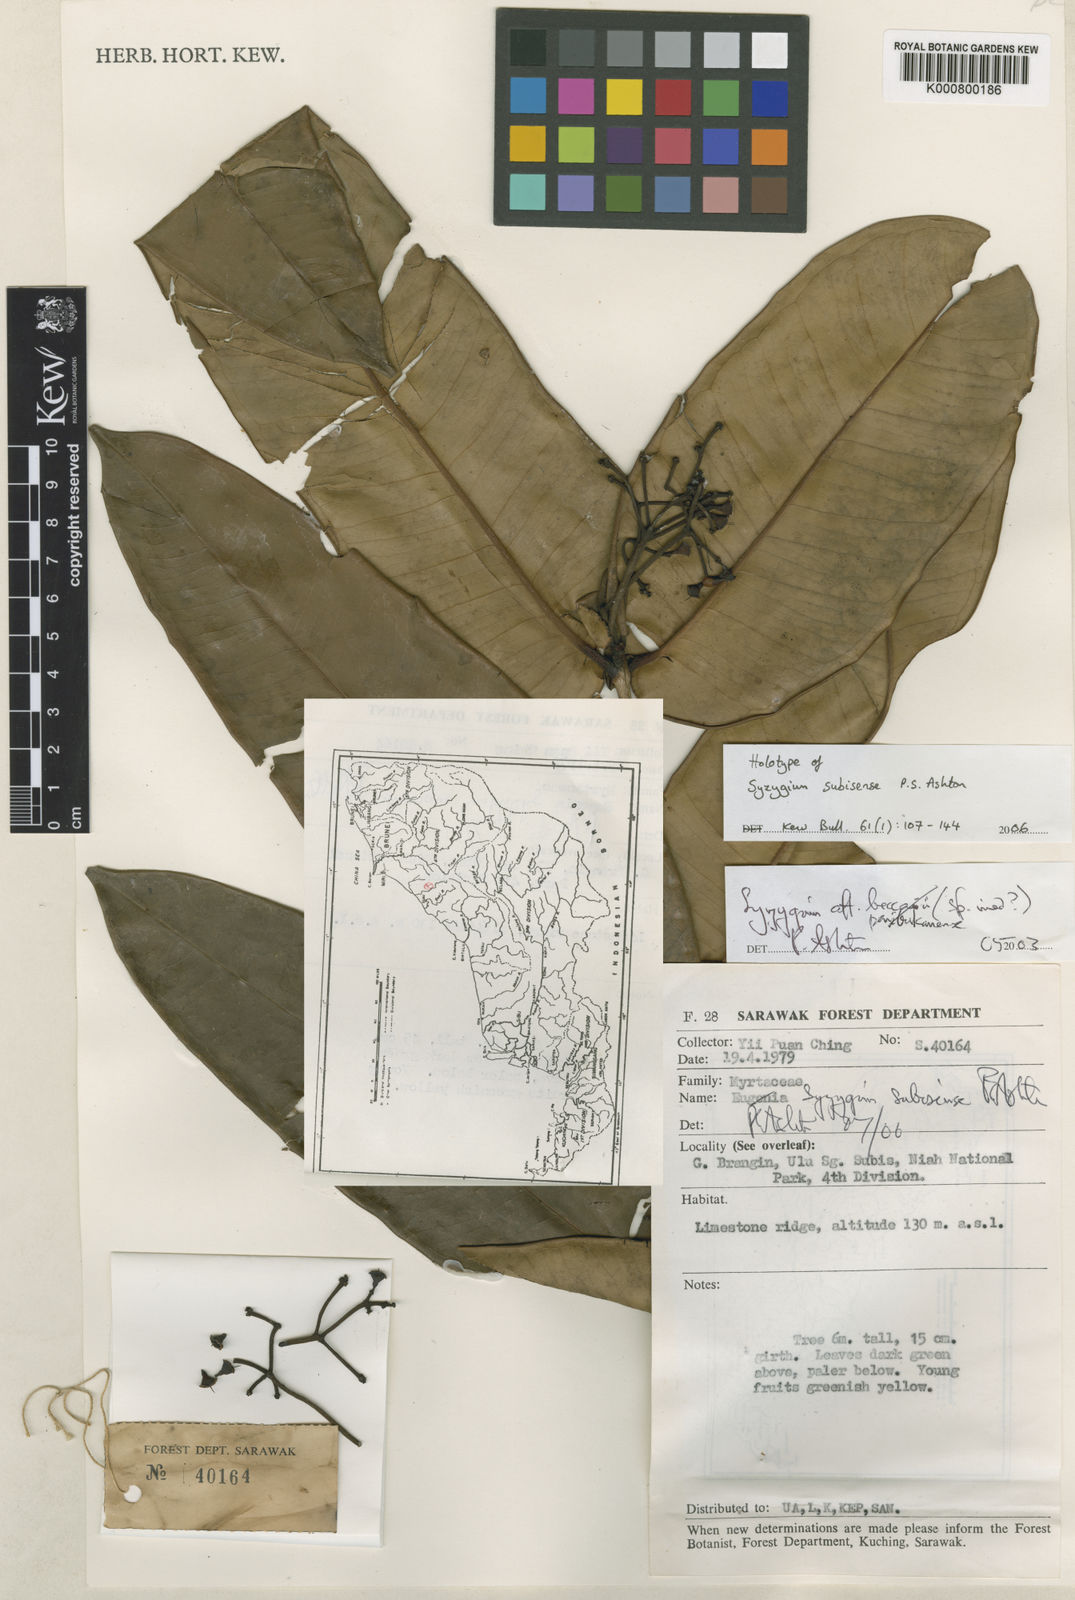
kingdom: Plantae
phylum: Tracheophyta
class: Magnoliopsida
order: Myrtales
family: Myrtaceae
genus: Syzygium
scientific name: Syzygium subisense
